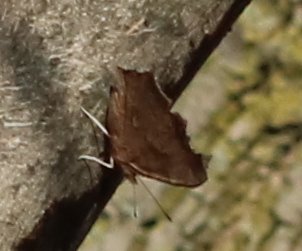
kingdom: Animalia
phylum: Arthropoda
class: Insecta
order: Lepidoptera
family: Nymphalidae
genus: Polygonia
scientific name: Polygonia comma
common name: Eastern Comma
